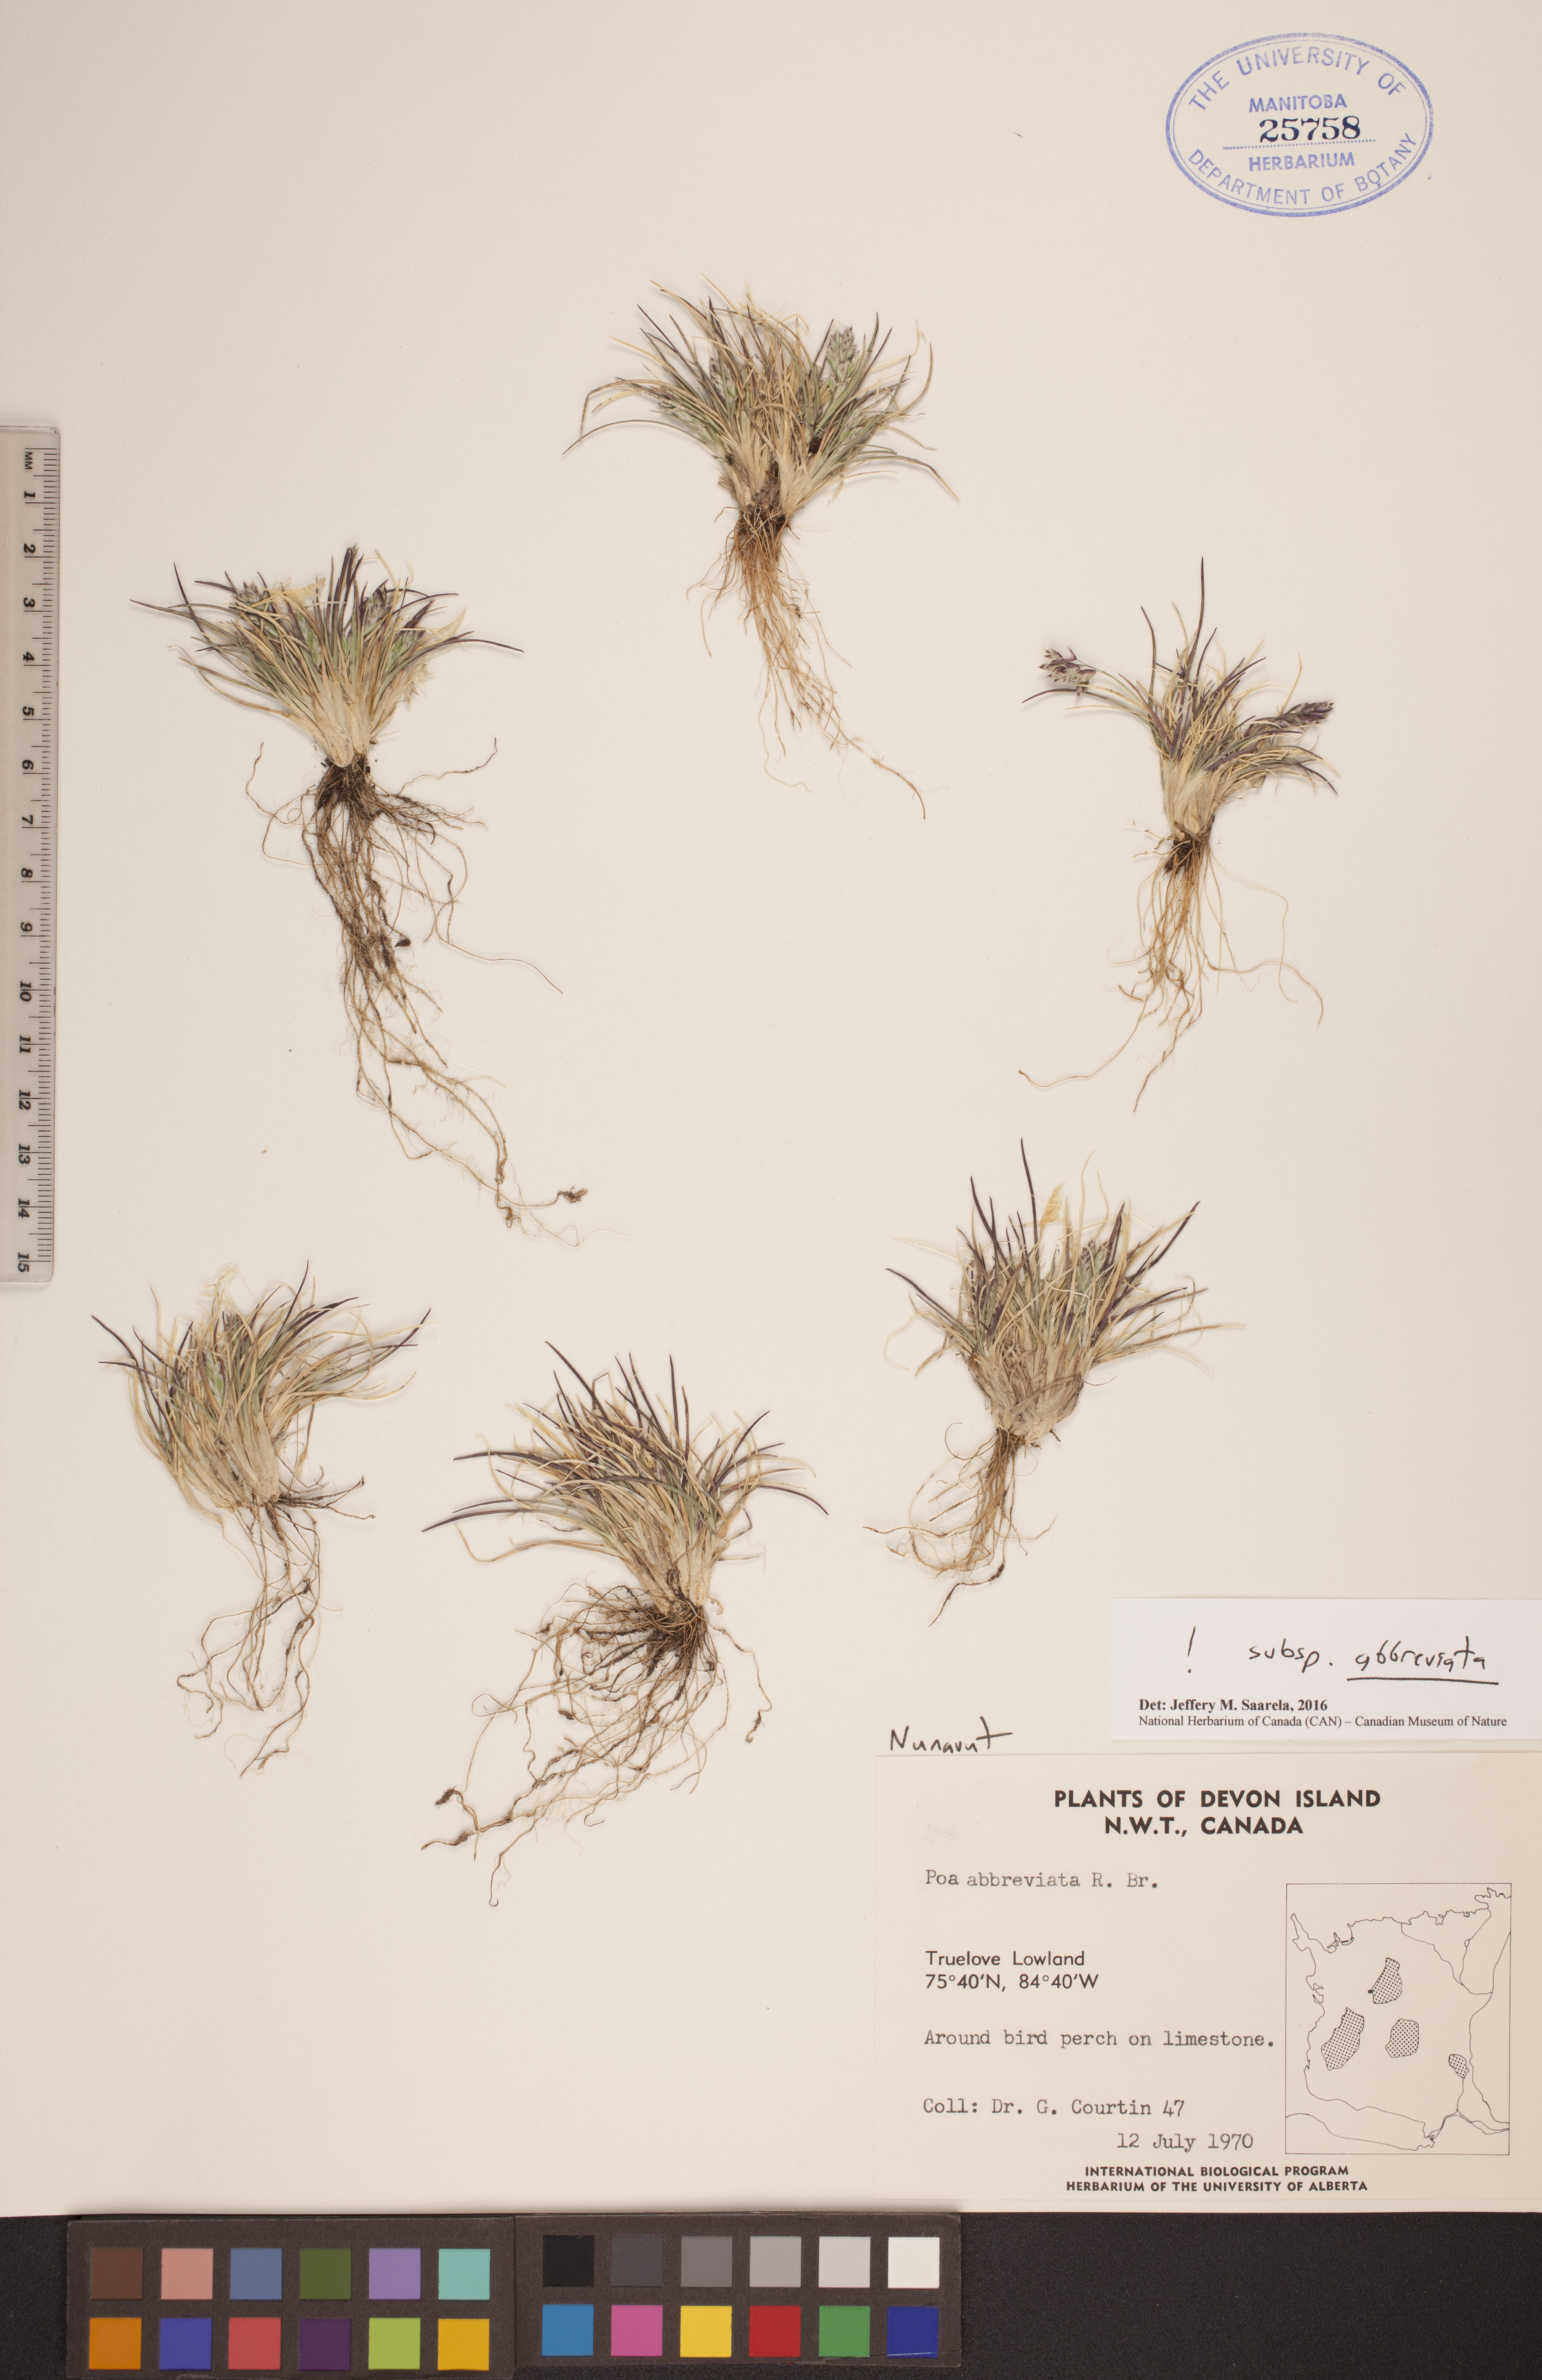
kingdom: Plantae
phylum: Tracheophyta
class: Liliopsida
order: Poales
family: Poaceae
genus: Poa
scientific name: Poa abbreviata
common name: Abbreviated bluegrass
